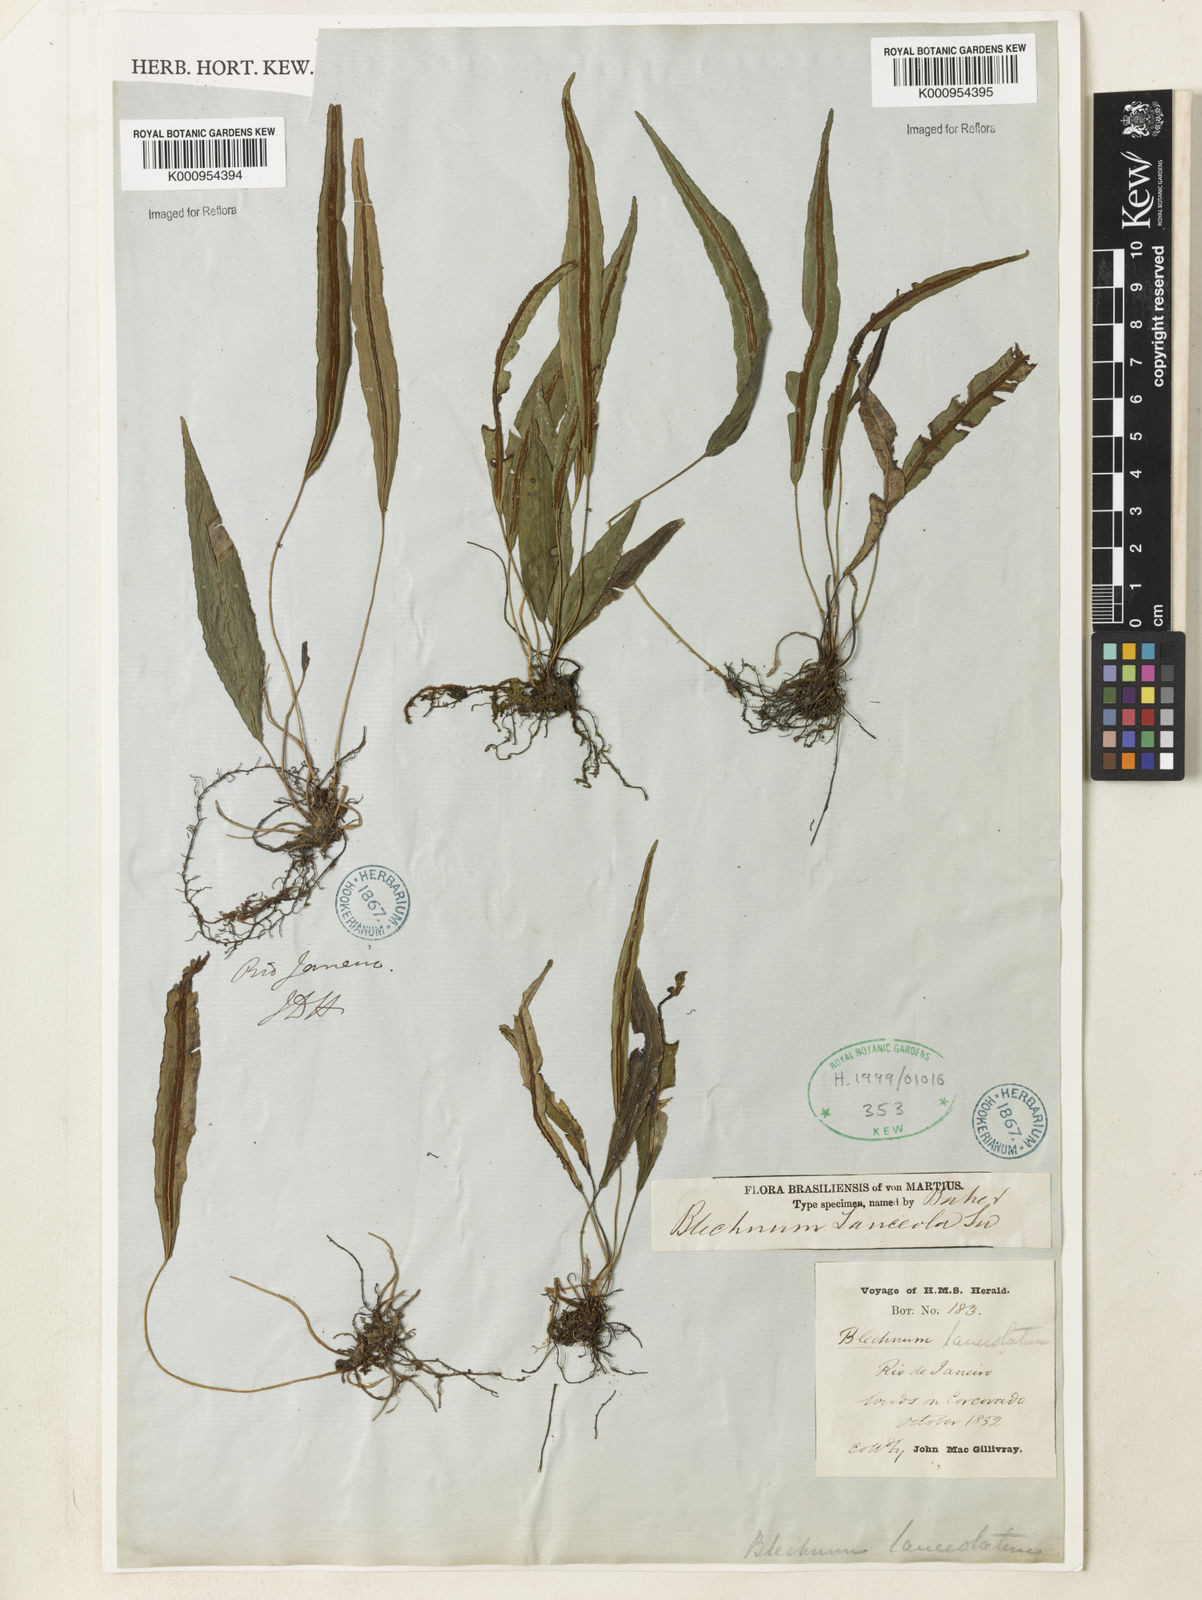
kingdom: Plantae
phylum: Tracheophyta
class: Polypodiopsida
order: Polypodiales
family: Blechnaceae
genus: Blechnum
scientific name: Blechnum lanceola
